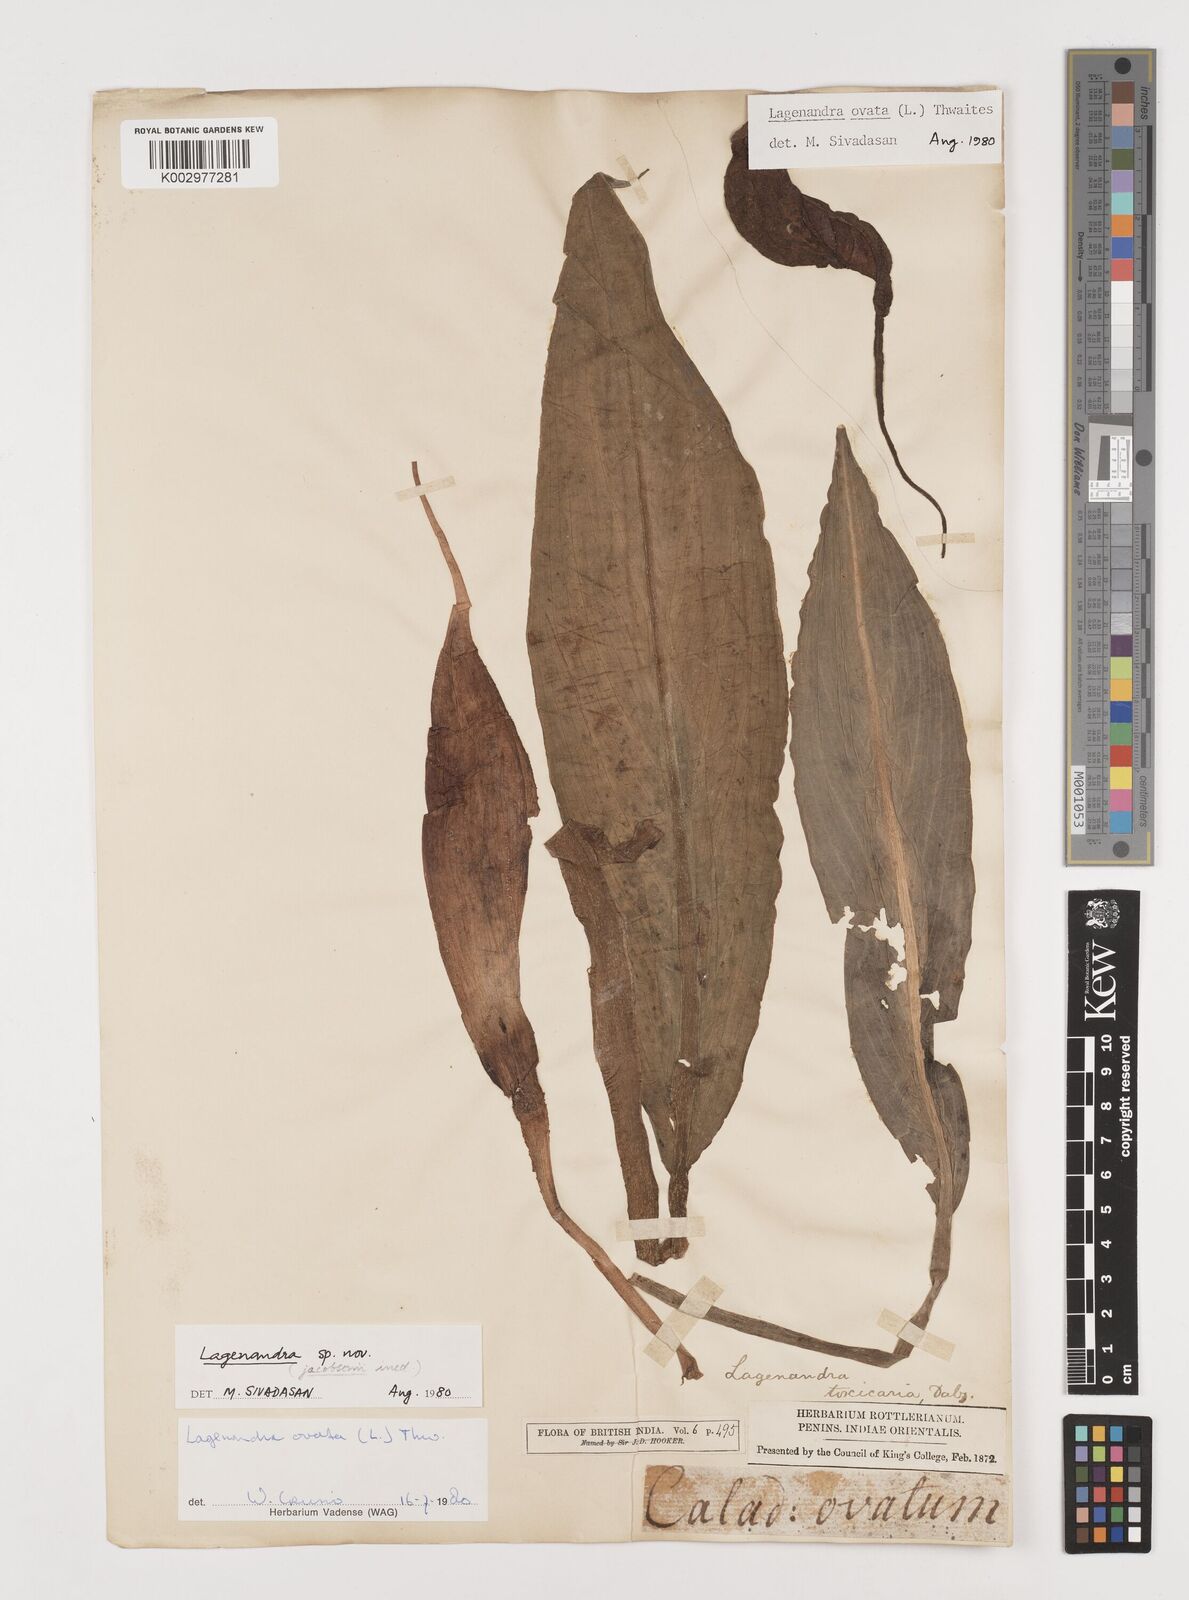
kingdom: Plantae
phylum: Tracheophyta
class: Liliopsida
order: Alismatales
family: Araceae
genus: Lagenandra
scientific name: Lagenandra ovata
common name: Malayan sword
